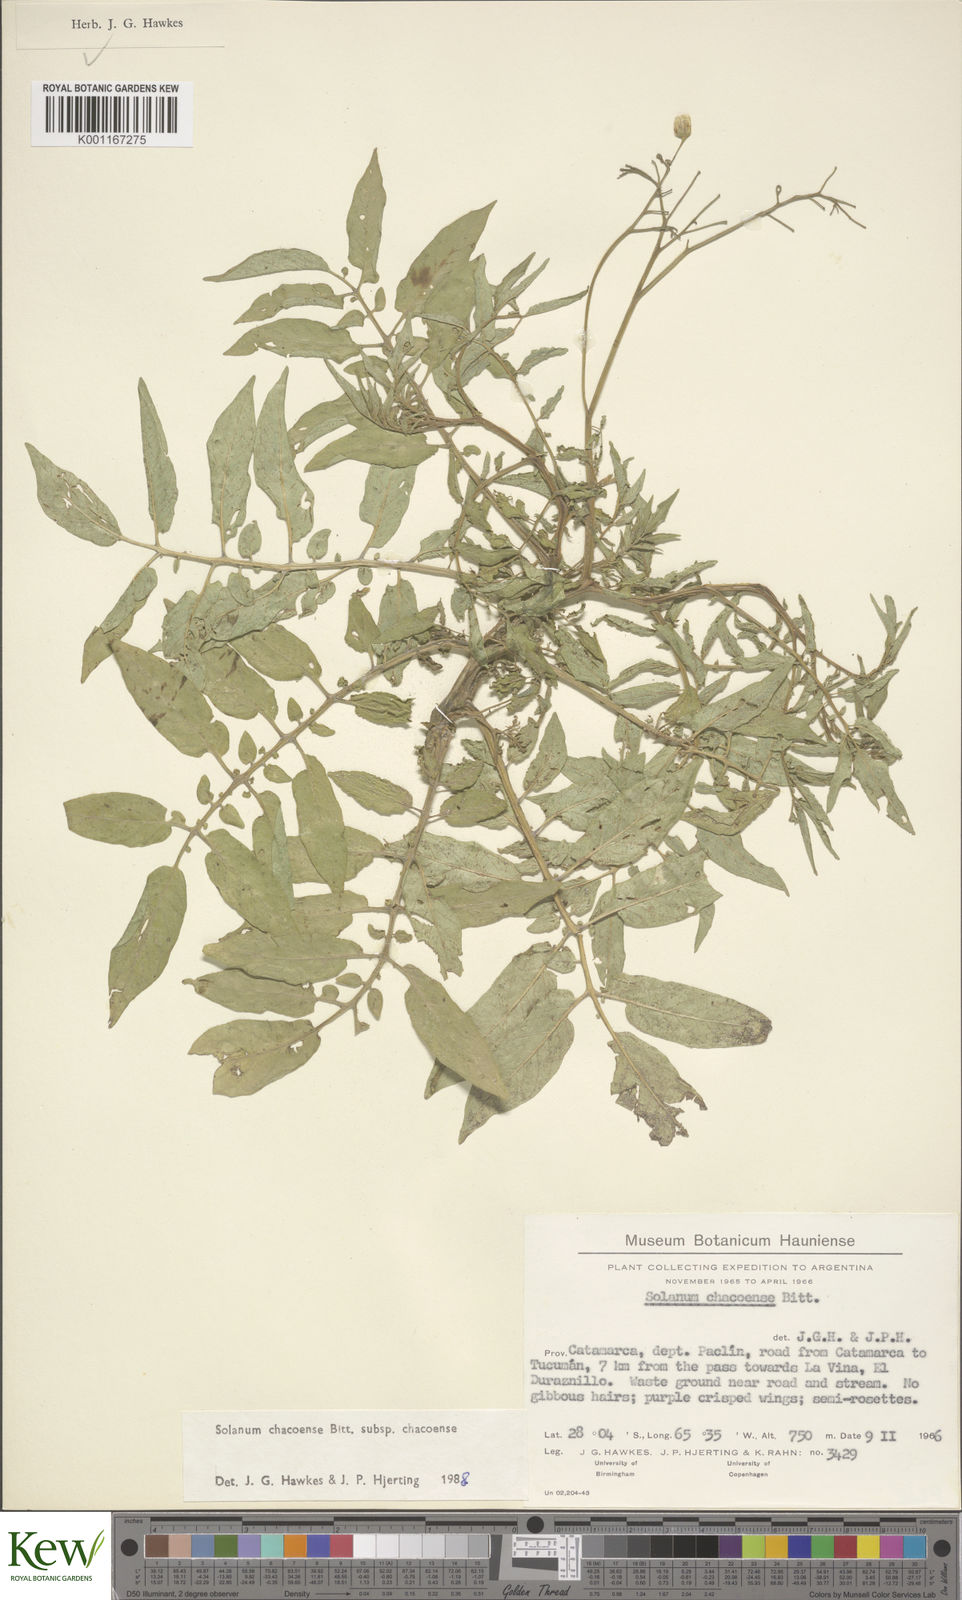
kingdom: Plantae
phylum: Tracheophyta
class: Magnoliopsida
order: Solanales
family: Solanaceae
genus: Solanum
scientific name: Solanum chacoense
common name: Chaco potato
